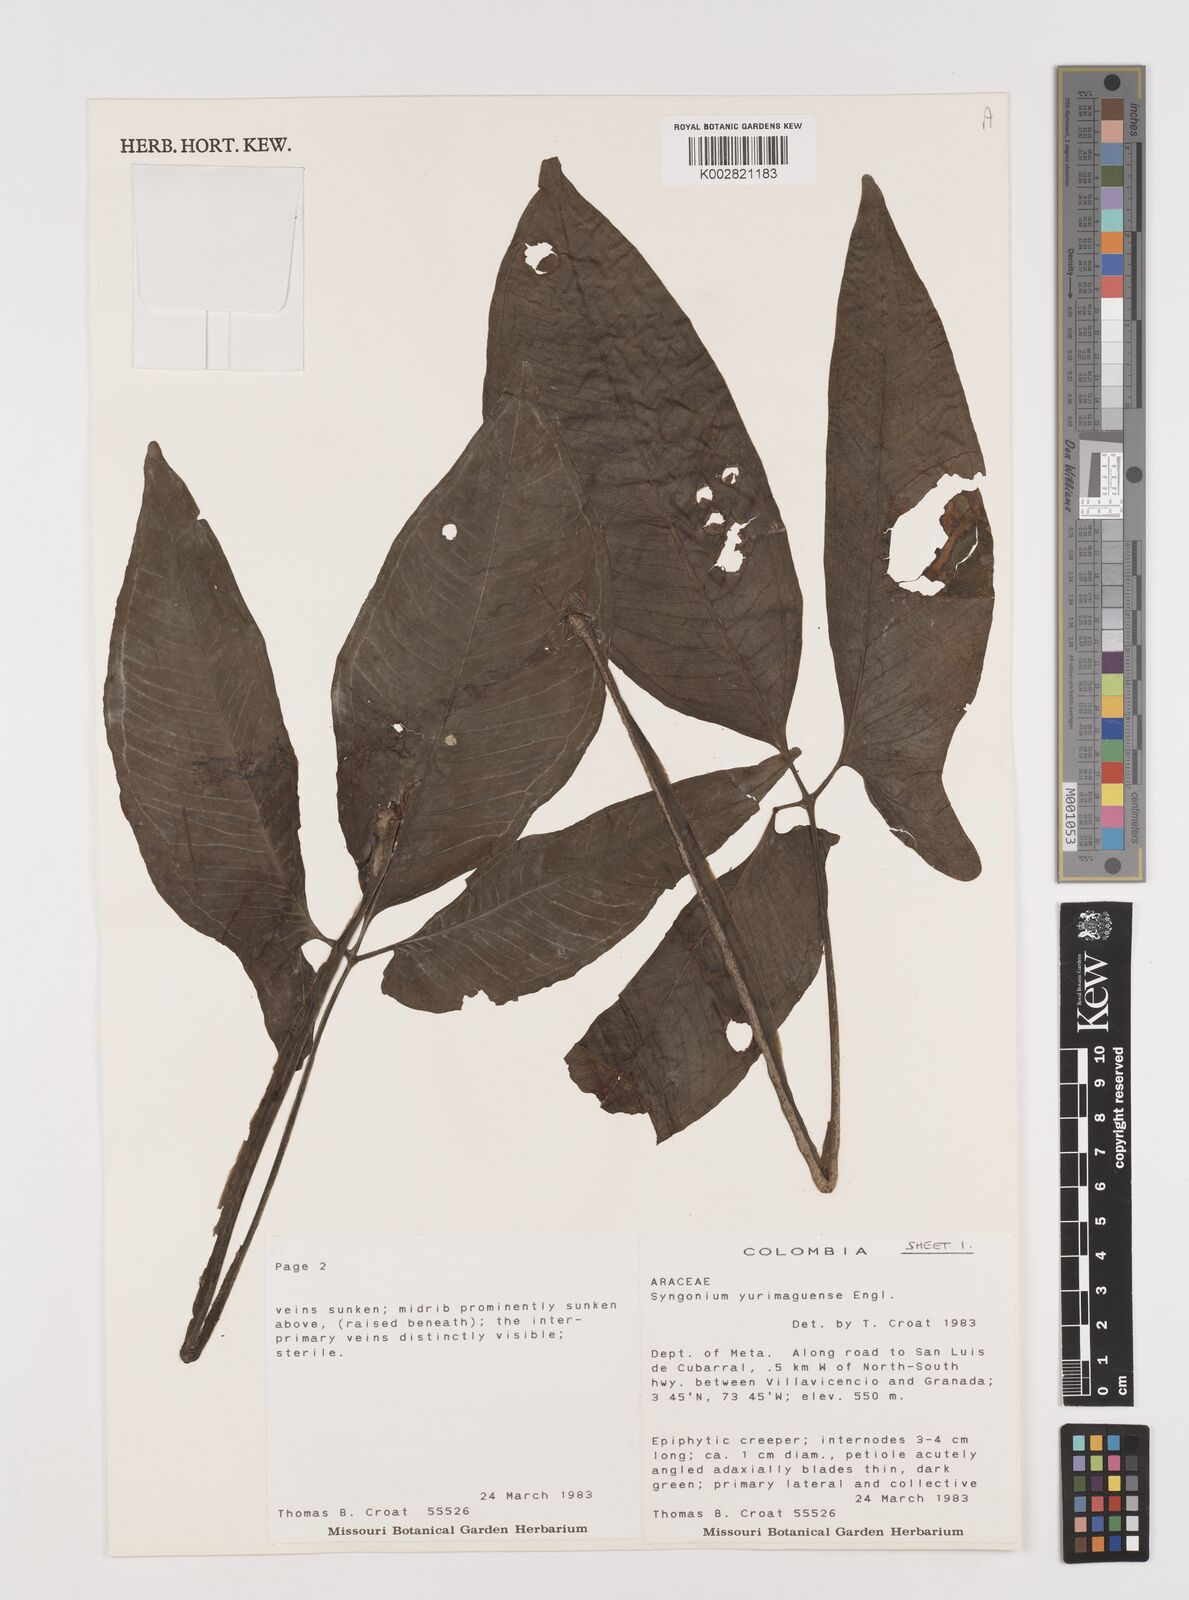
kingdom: Plantae
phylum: Tracheophyta
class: Liliopsida
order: Alismatales
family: Araceae
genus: Syngonium
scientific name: Syngonium yurimaguense
